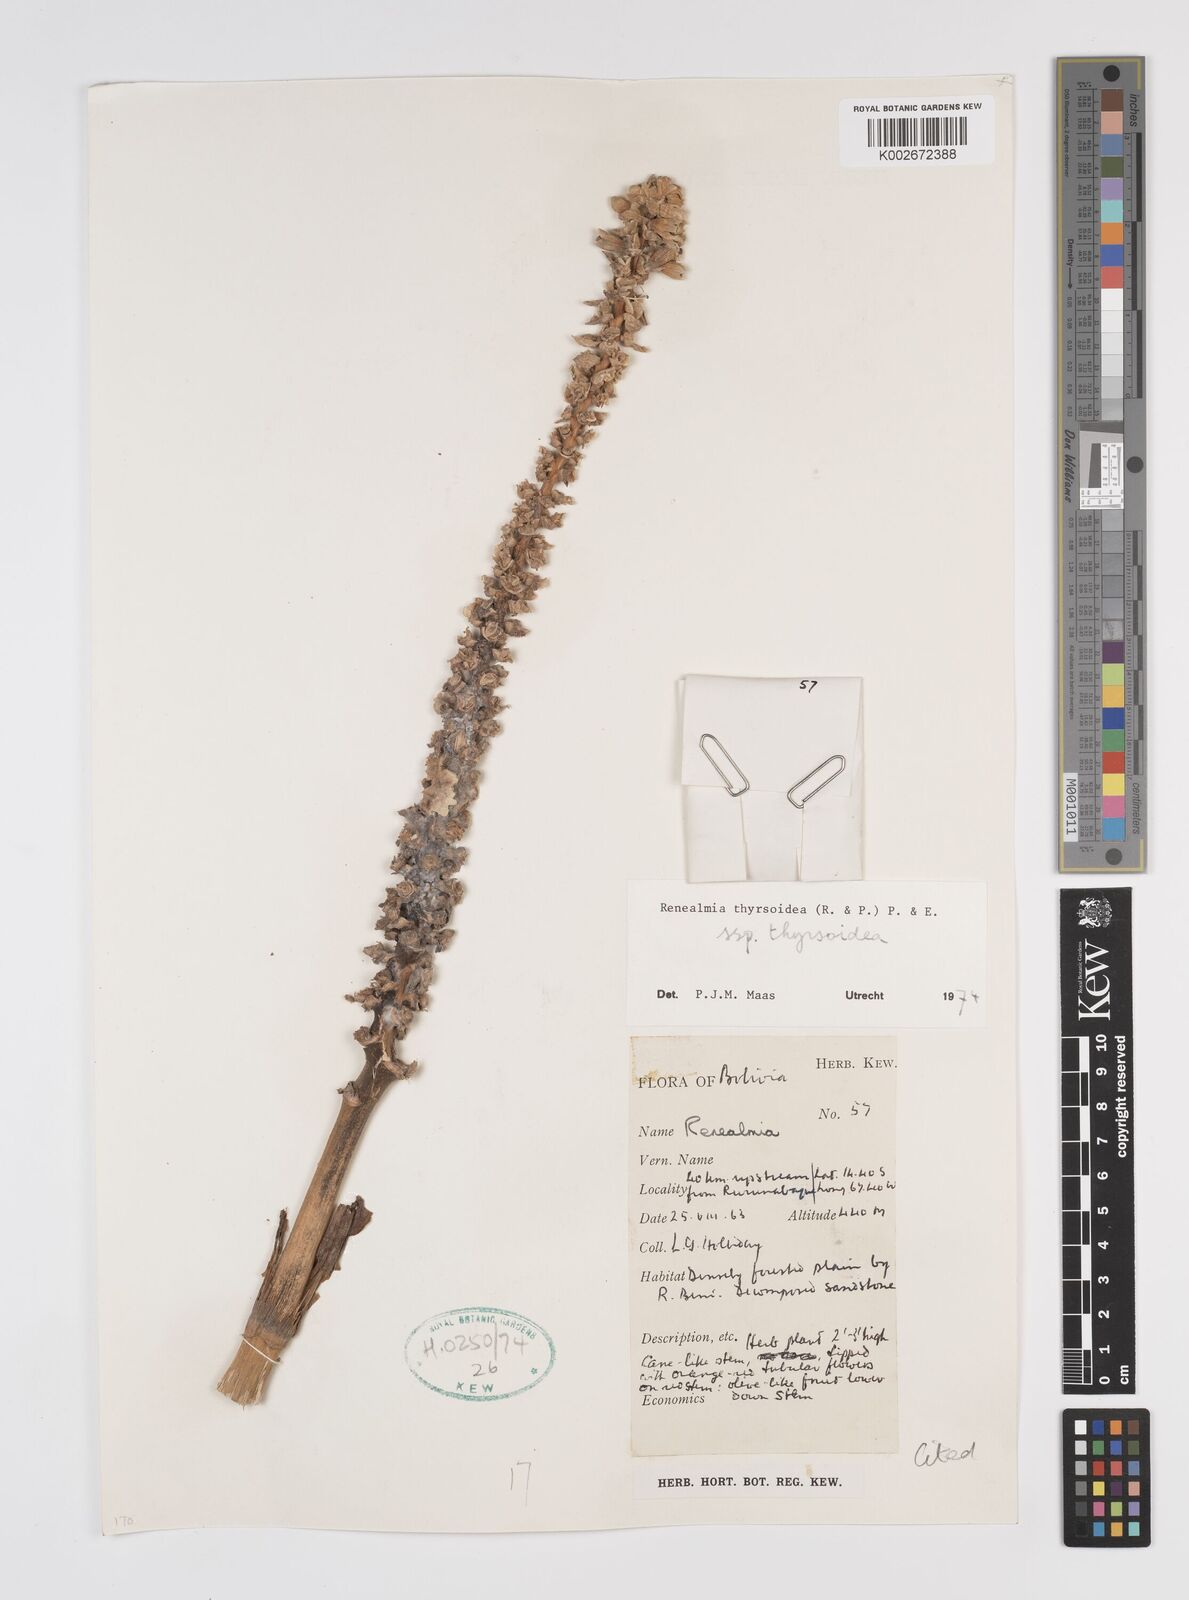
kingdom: Plantae
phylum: Tracheophyta
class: Liliopsida
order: Zingiberales
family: Zingiberaceae
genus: Renealmia
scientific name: Renealmia thyrsoidea
